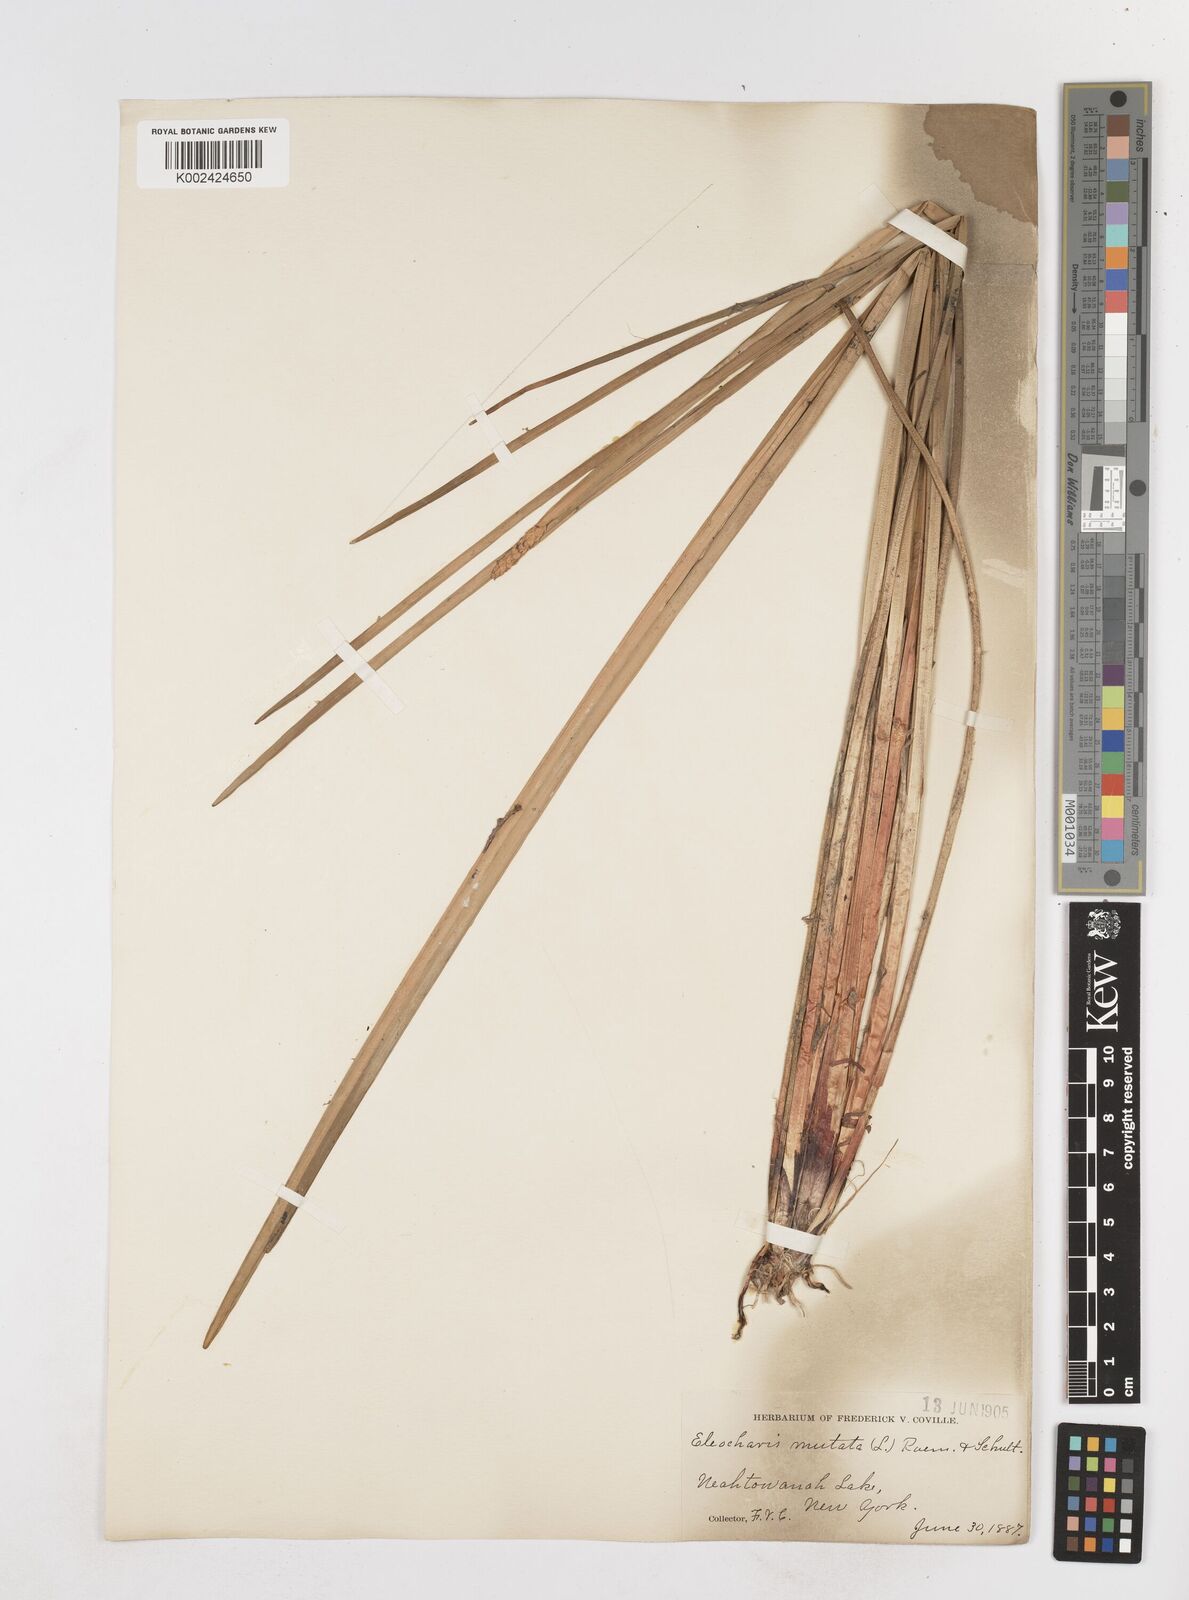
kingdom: Plantae
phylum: Tracheophyta
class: Liliopsida
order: Poales
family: Cyperaceae
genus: Eleocharis
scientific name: Eleocharis mutata
